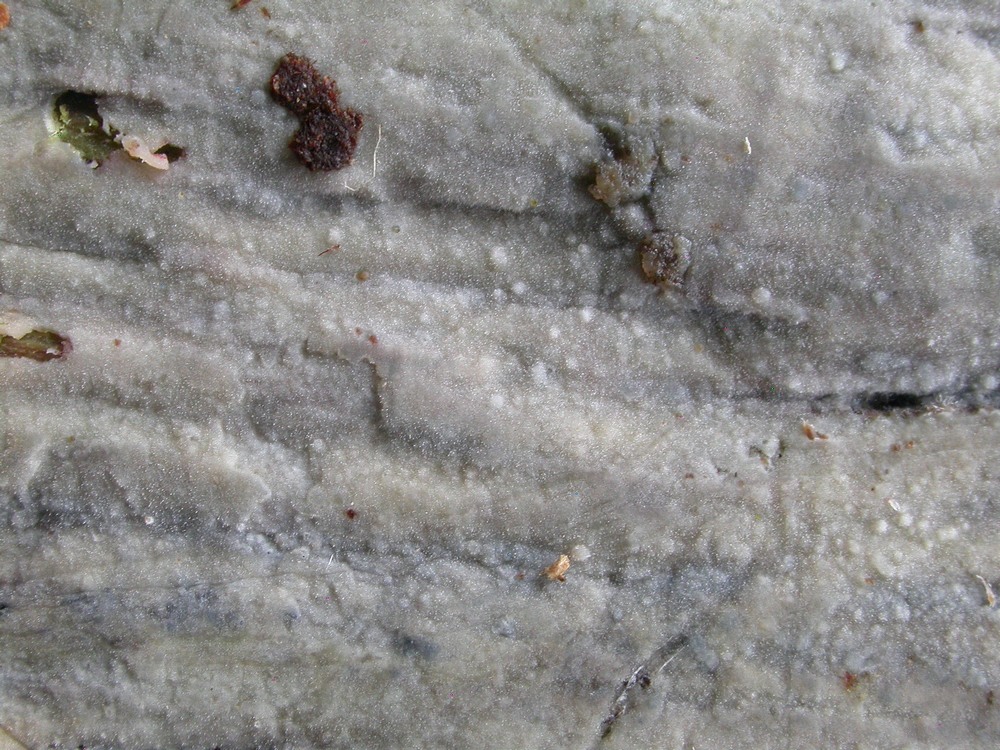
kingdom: Fungi
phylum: Basidiomycota
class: Agaricomycetes
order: Polyporales
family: Meruliaceae
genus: Scopuloides
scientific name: Scopuloides rimosa
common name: dughinde
